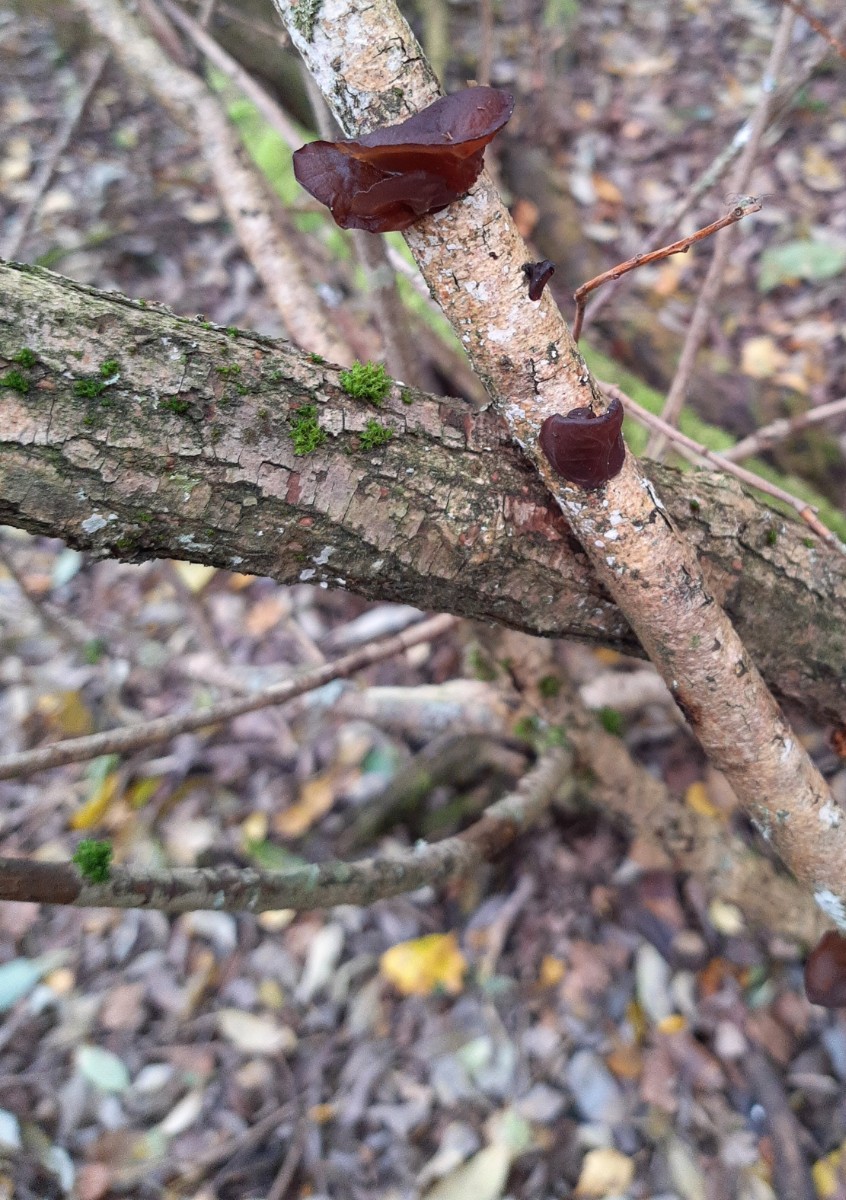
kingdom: Fungi
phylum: Basidiomycota
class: Agaricomycetes
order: Auriculariales
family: Auriculariaceae
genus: Exidia
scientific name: Exidia recisa
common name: pile-bævretop
